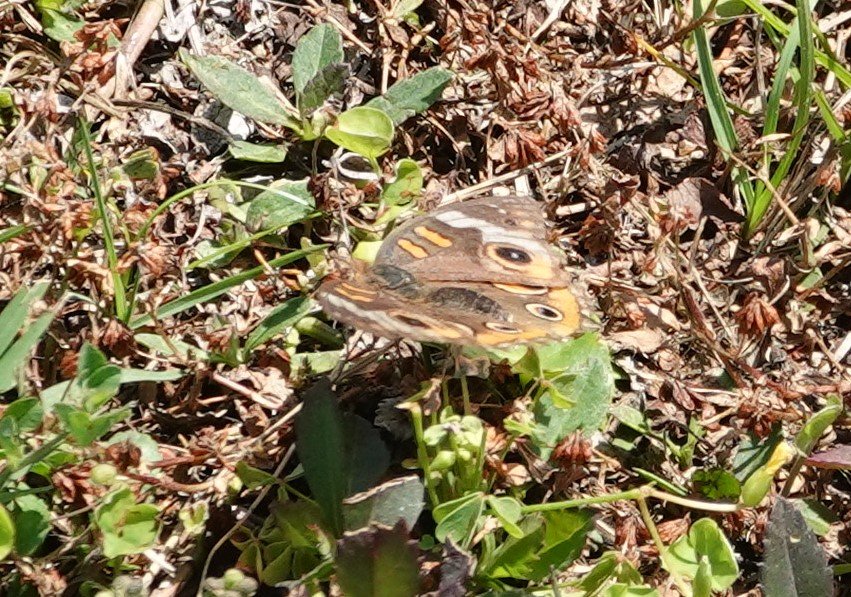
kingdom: Animalia
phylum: Arthropoda
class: Insecta
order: Lepidoptera
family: Nymphalidae
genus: Junonia
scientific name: Junonia coenia
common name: Common Buckeye
